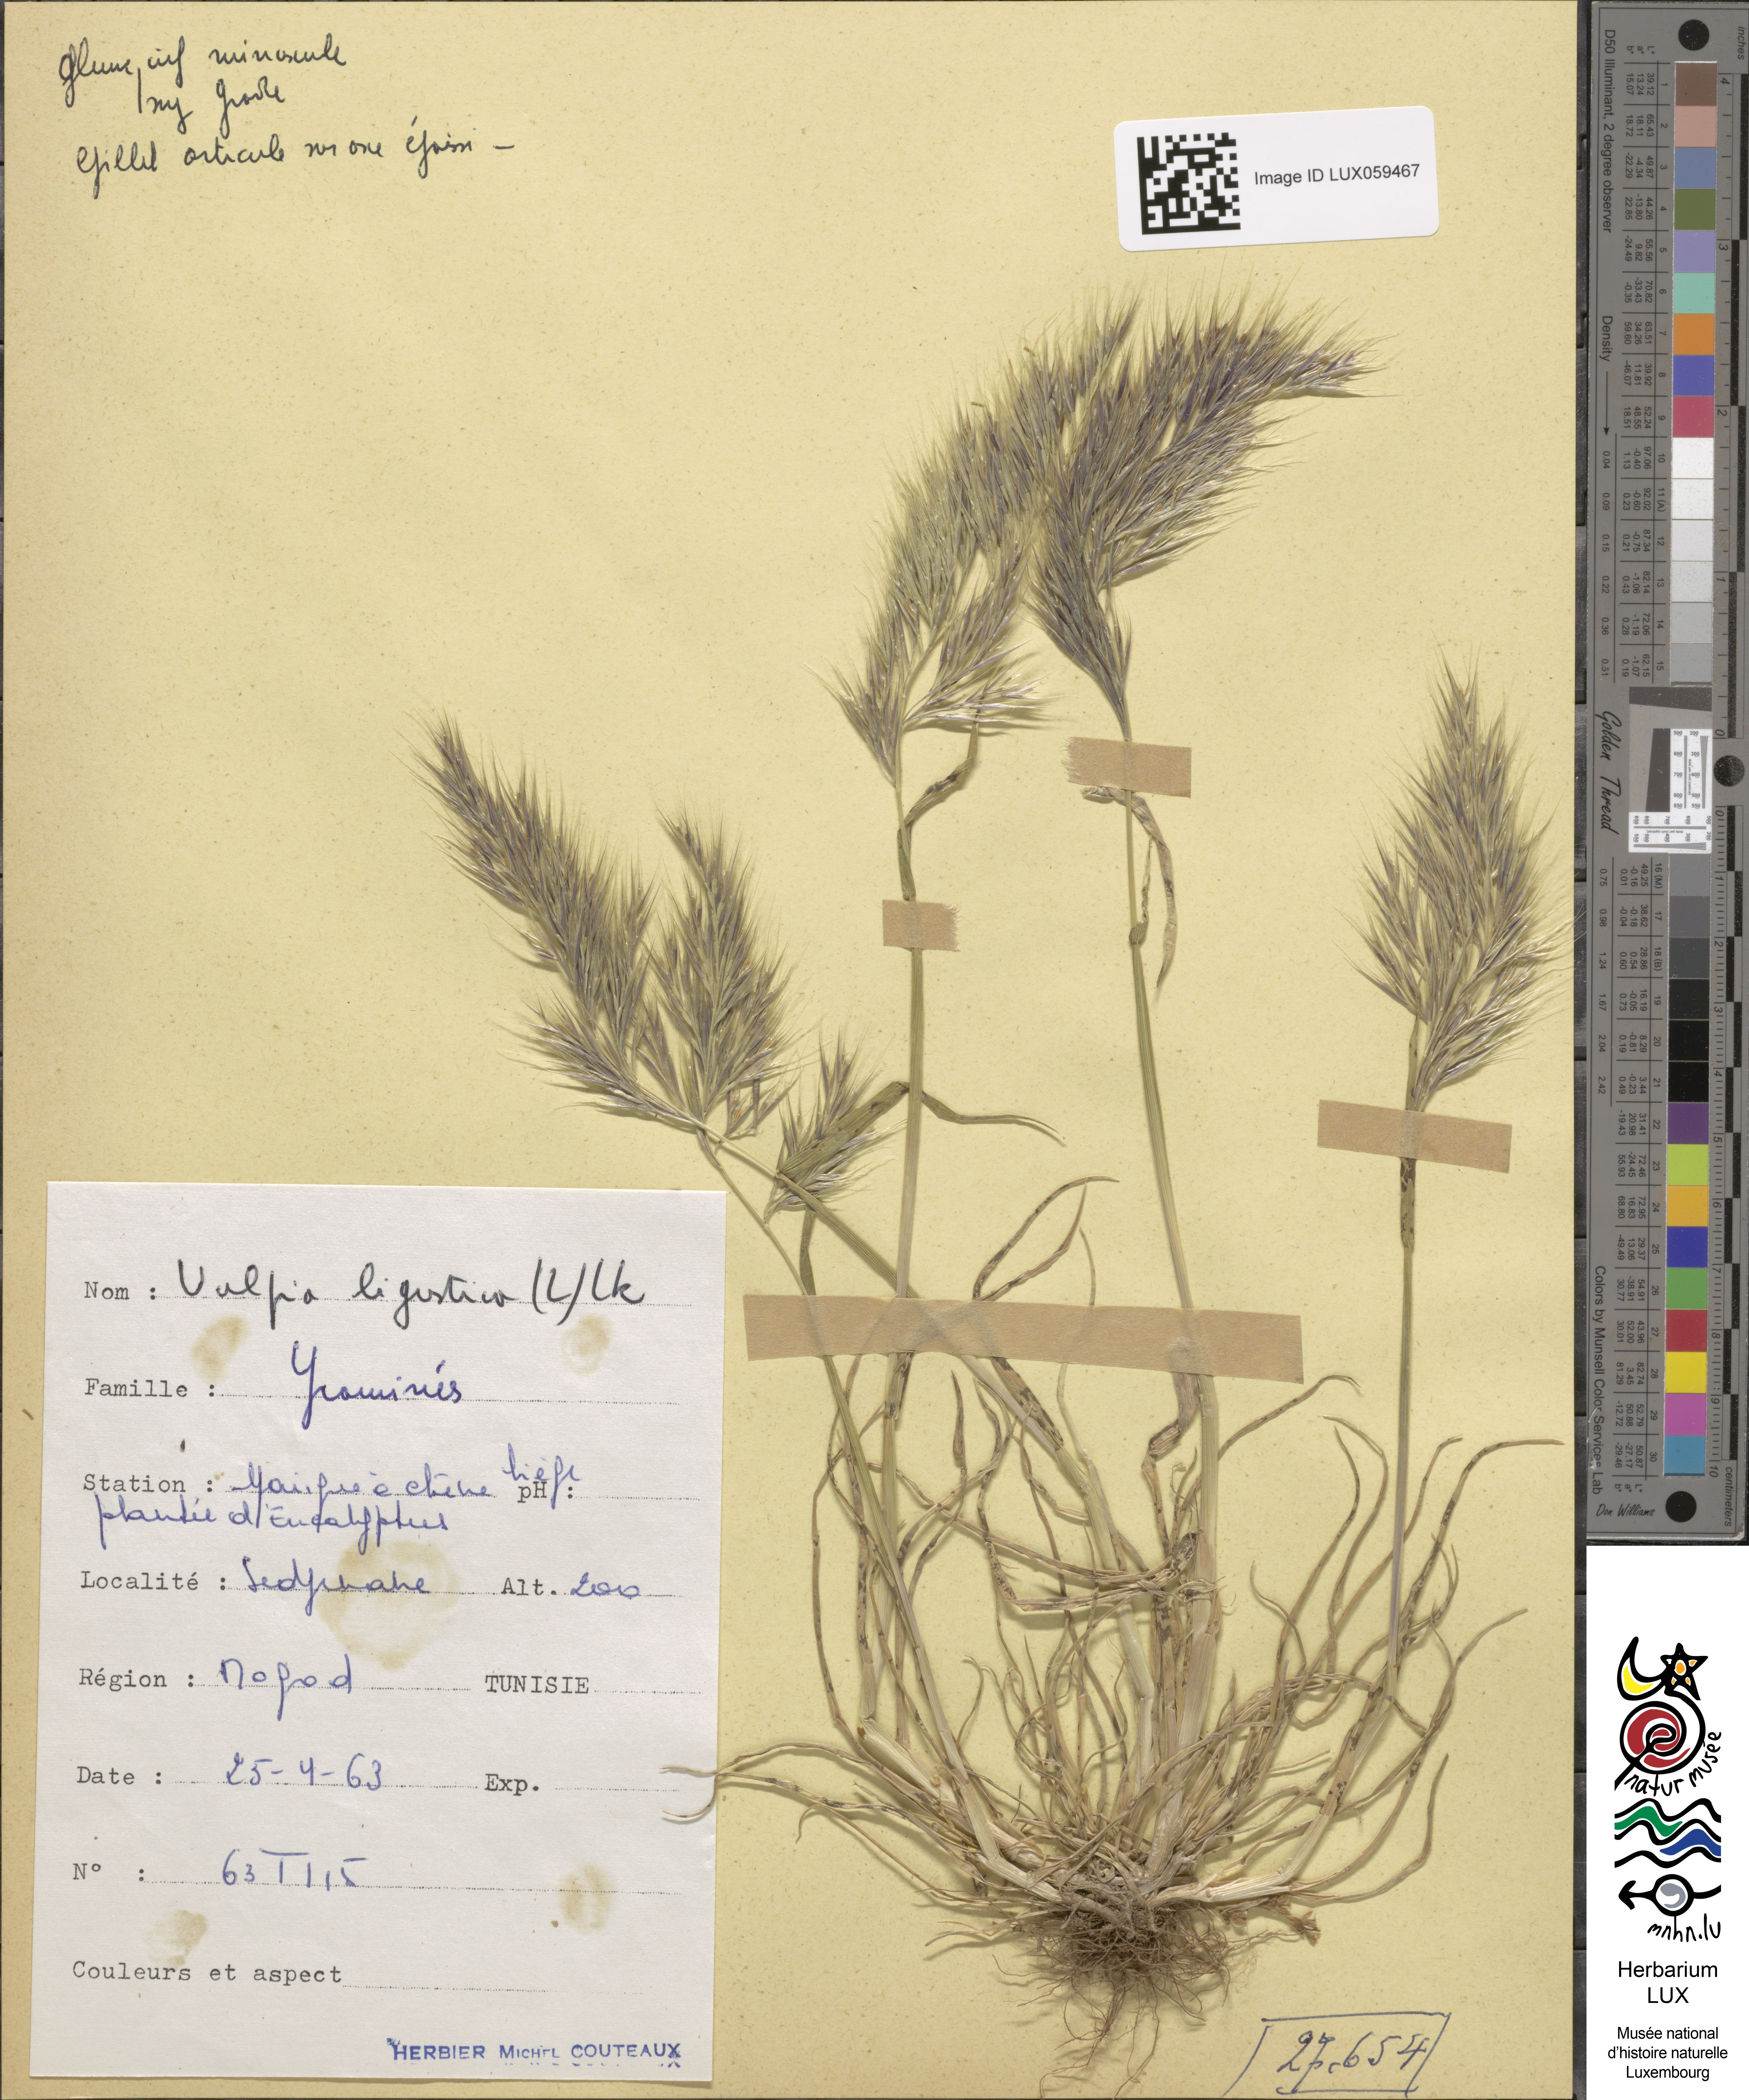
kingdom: Plantae
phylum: Tracheophyta
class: Liliopsida
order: Poales
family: Poaceae
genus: Festuca
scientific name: Festuca ligustica
